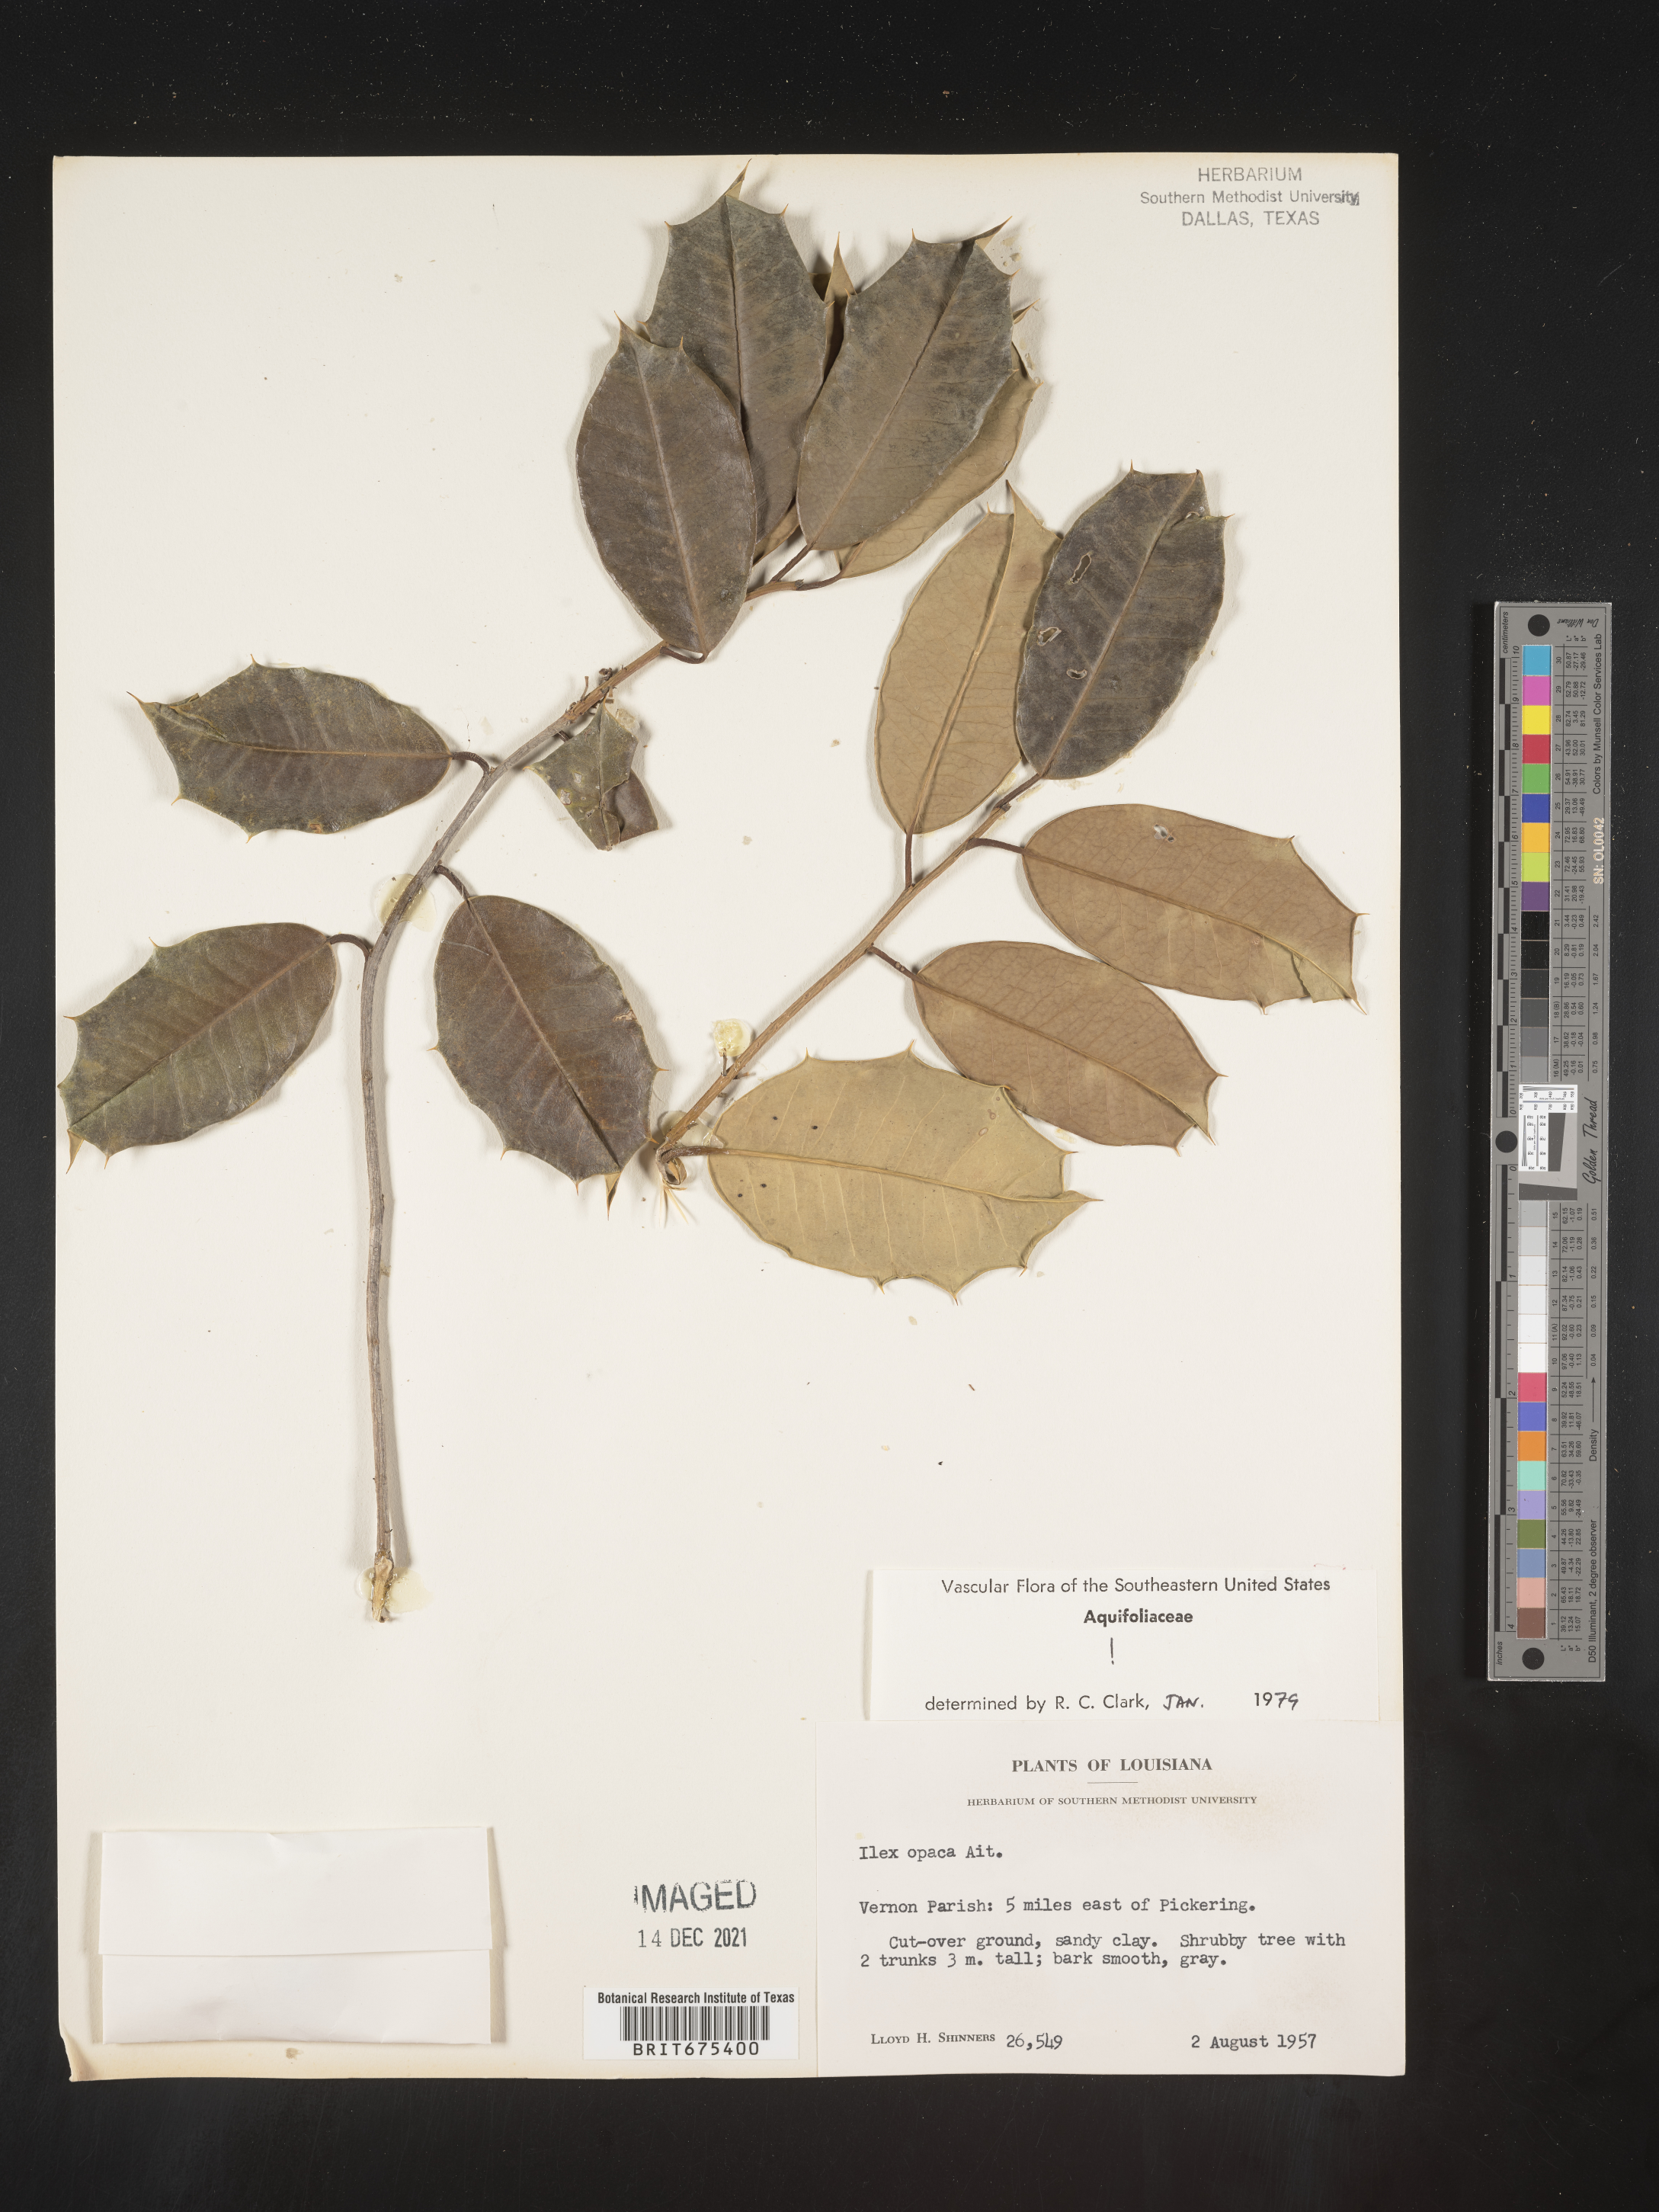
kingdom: Plantae
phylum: Tracheophyta
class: Magnoliopsida
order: Aquifoliales
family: Aquifoliaceae
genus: Ilex
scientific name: Ilex opaca
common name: American holly
